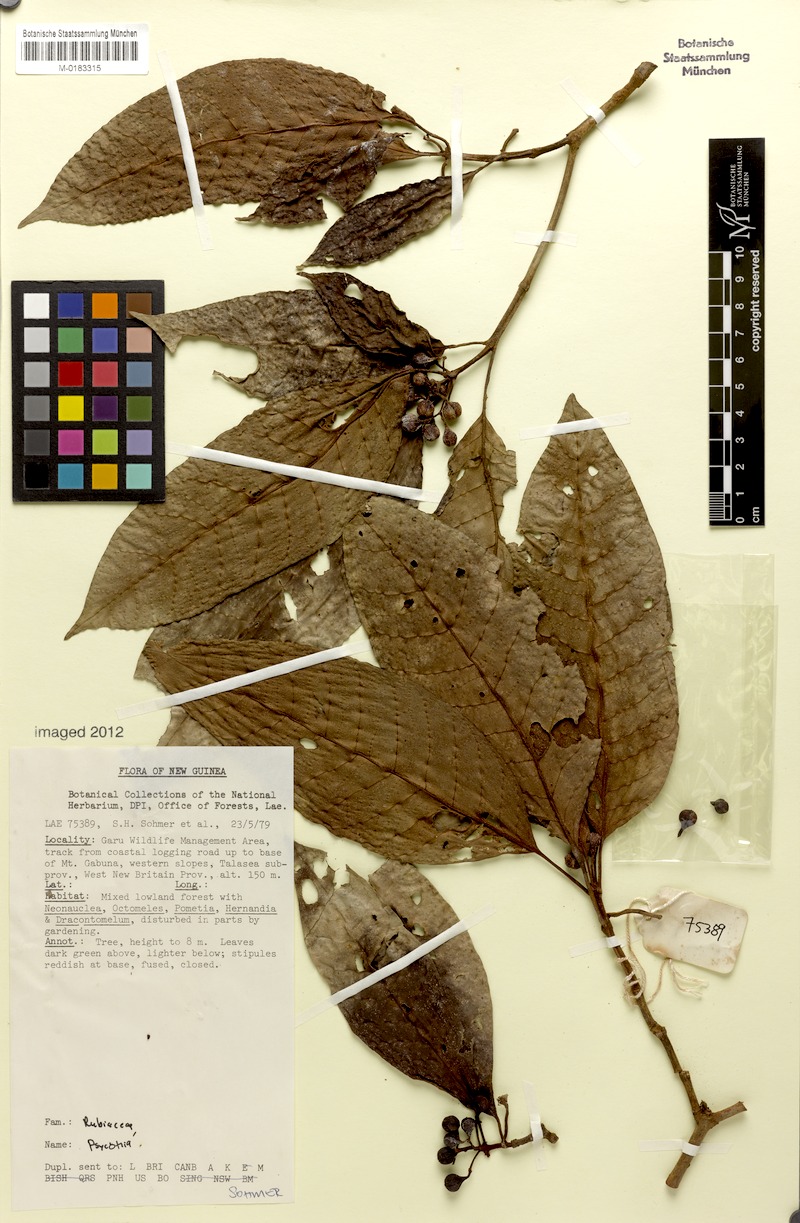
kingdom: Plantae
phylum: Tracheophyta
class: Magnoliopsida
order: Gentianales
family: Rubiaceae
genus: Psychotria
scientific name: Psychotria talasensis
